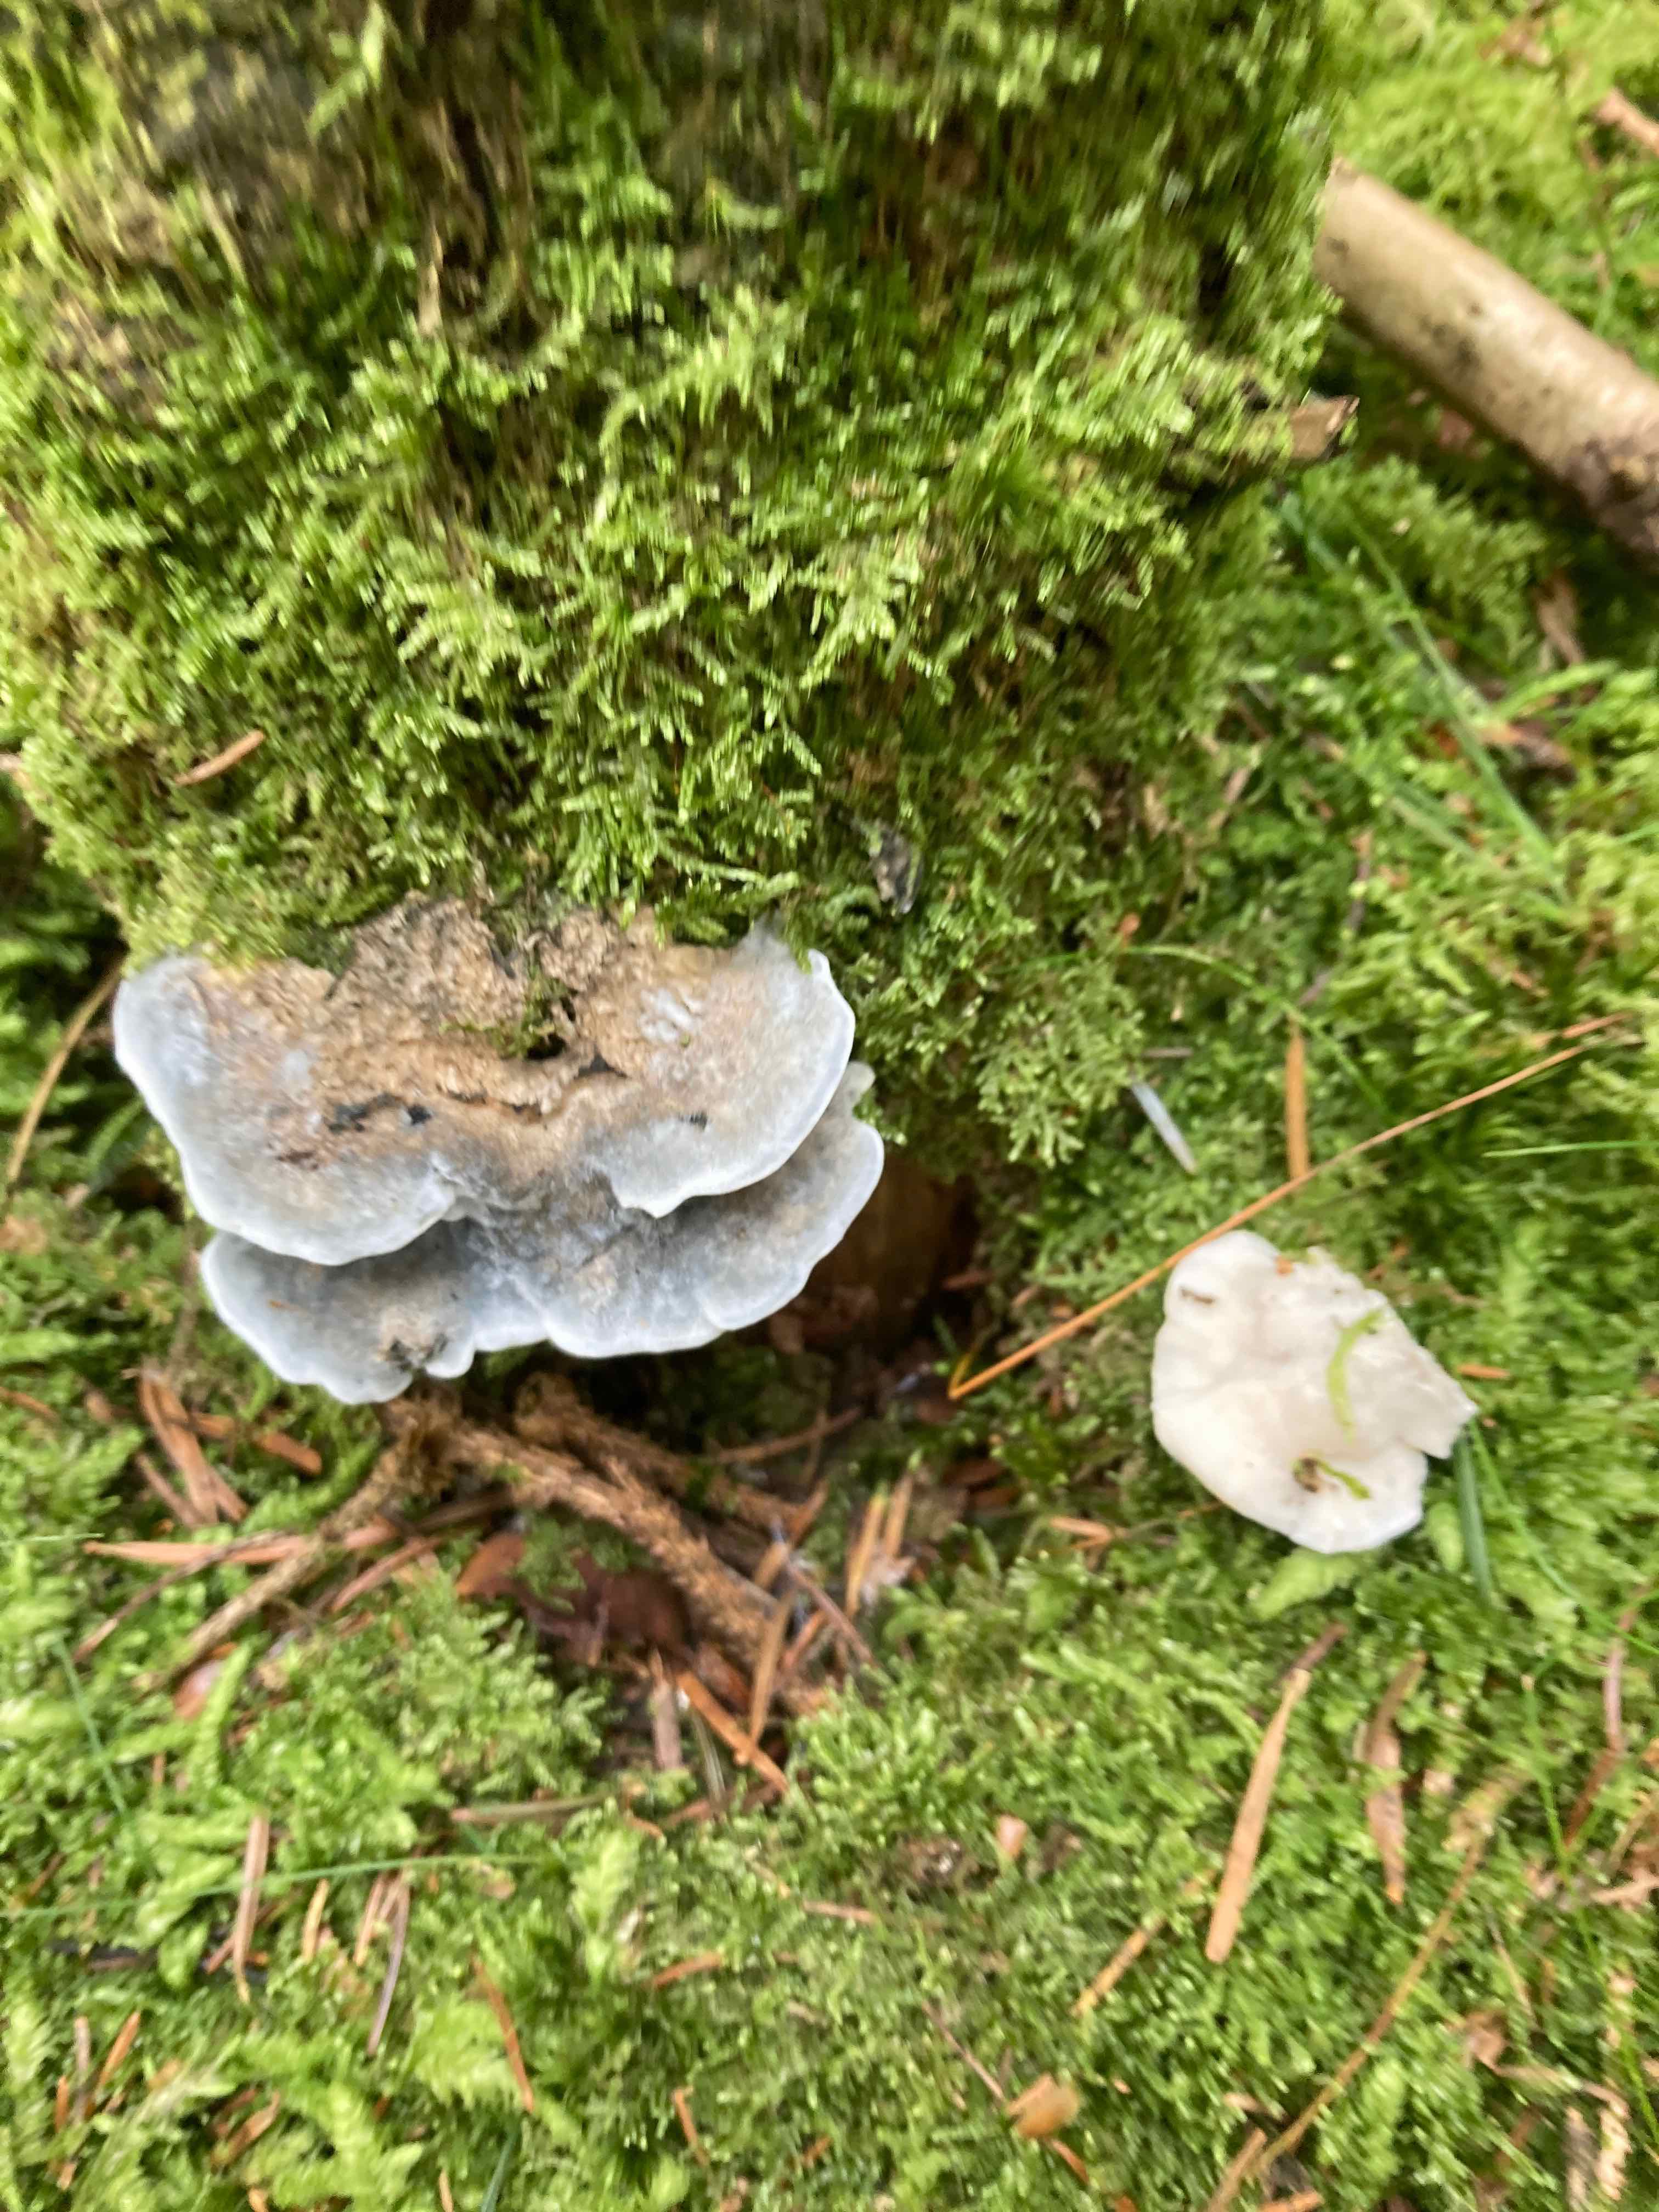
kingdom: Fungi
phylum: Basidiomycota
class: Agaricomycetes
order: Polyporales
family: Polyporaceae
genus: Cyanosporus
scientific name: Cyanosporus caesius
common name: blålig kødporesvamp
